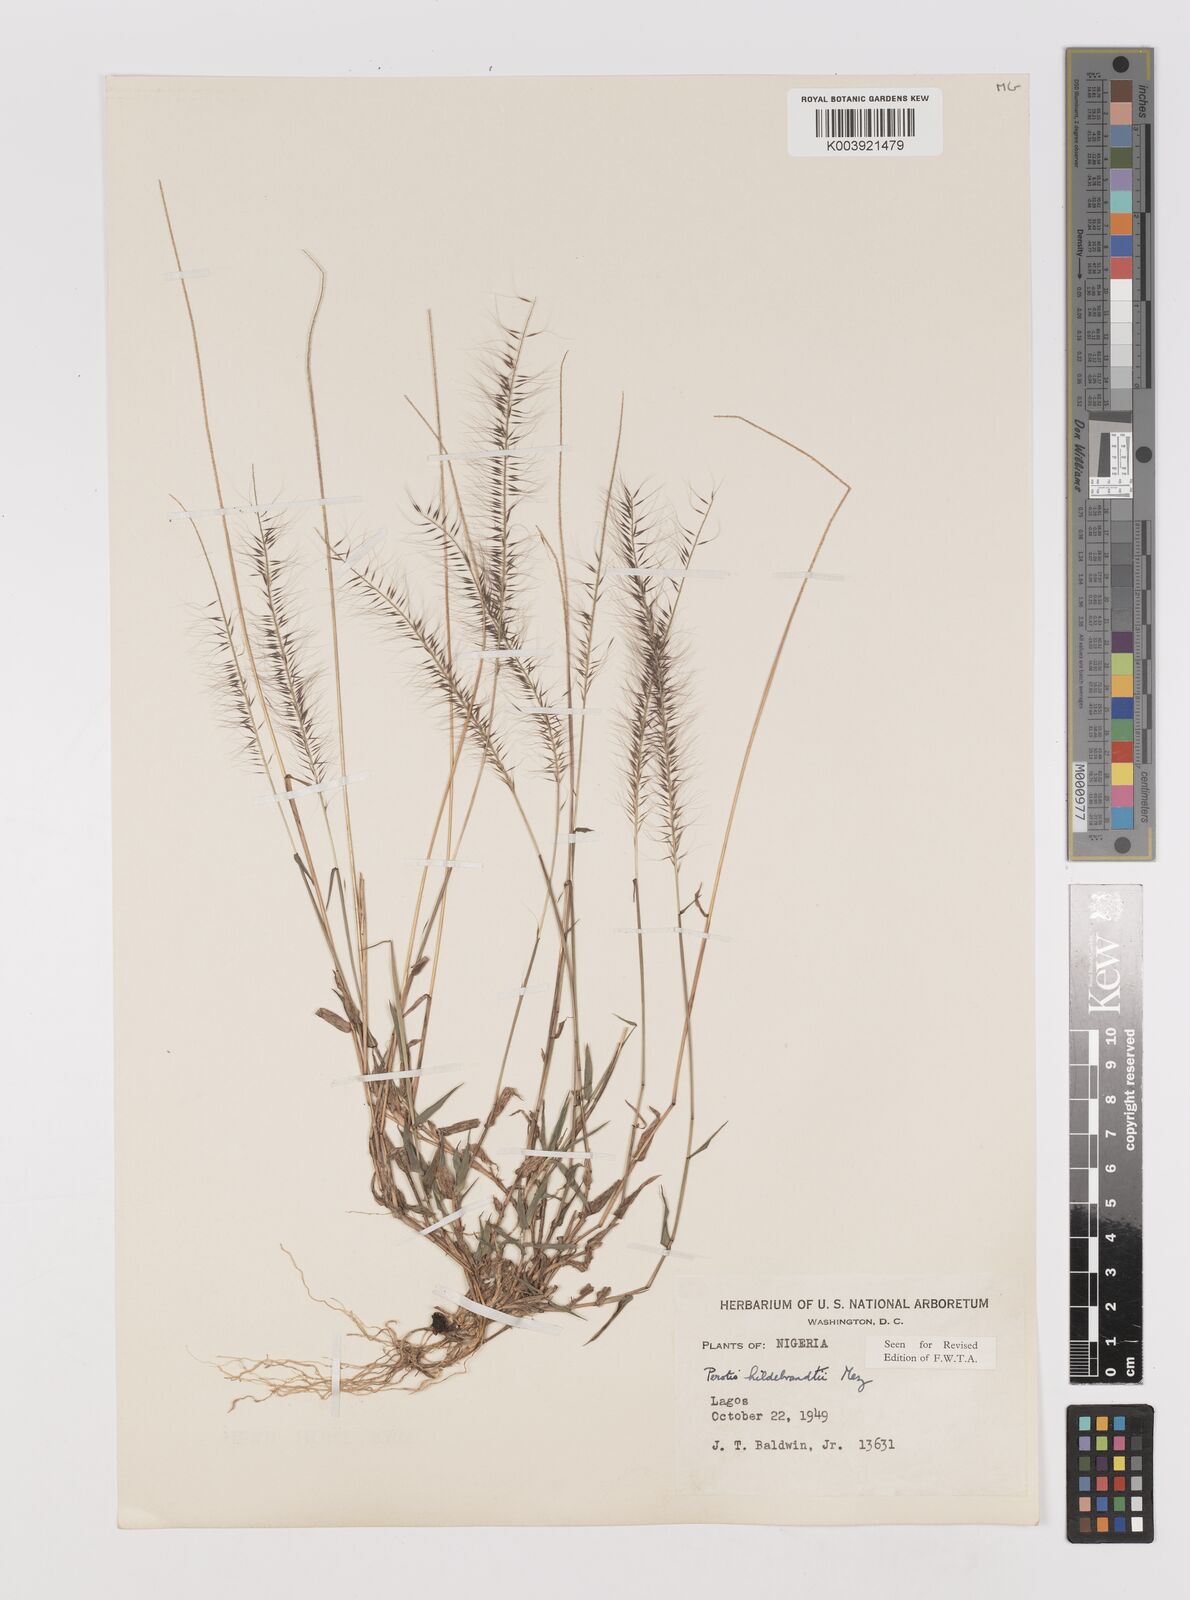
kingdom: Plantae
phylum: Tracheophyta
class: Liliopsida
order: Poales
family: Poaceae
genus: Perotis
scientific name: Perotis hildebrandtii
